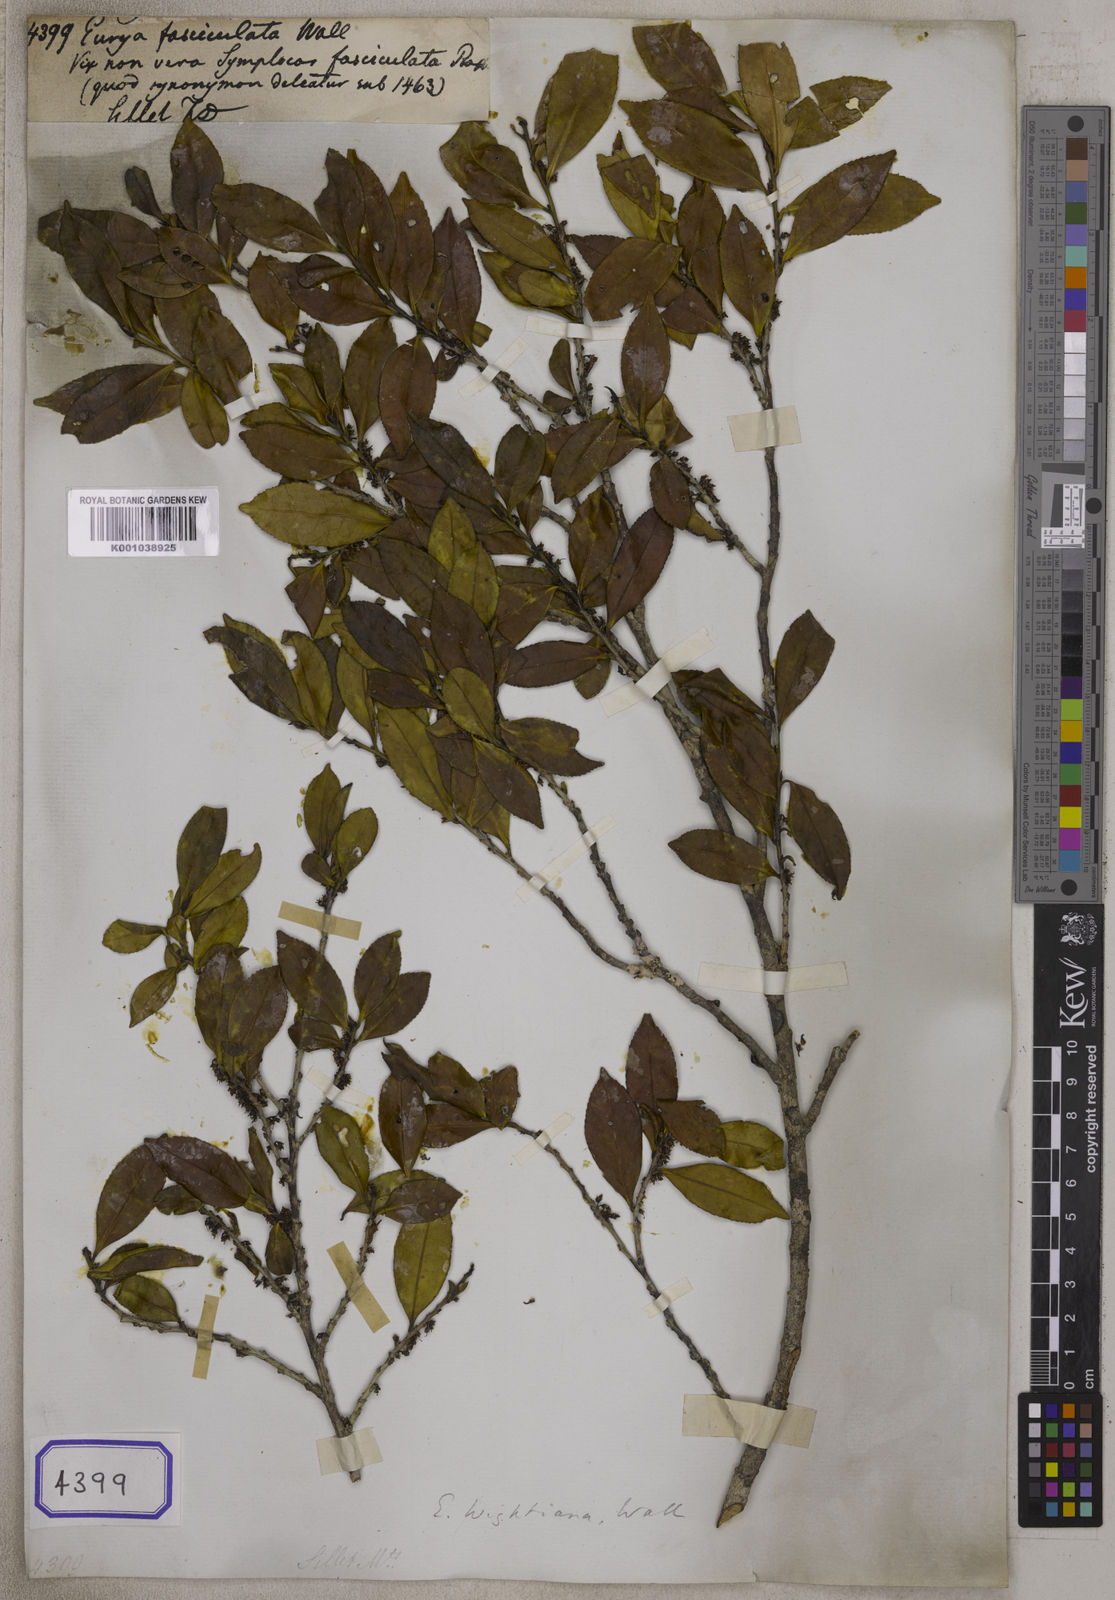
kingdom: Plantae
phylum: Tracheophyta
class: Magnoliopsida
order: Ericales
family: Pentaphylacaceae
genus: Eurya
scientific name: Eurya
